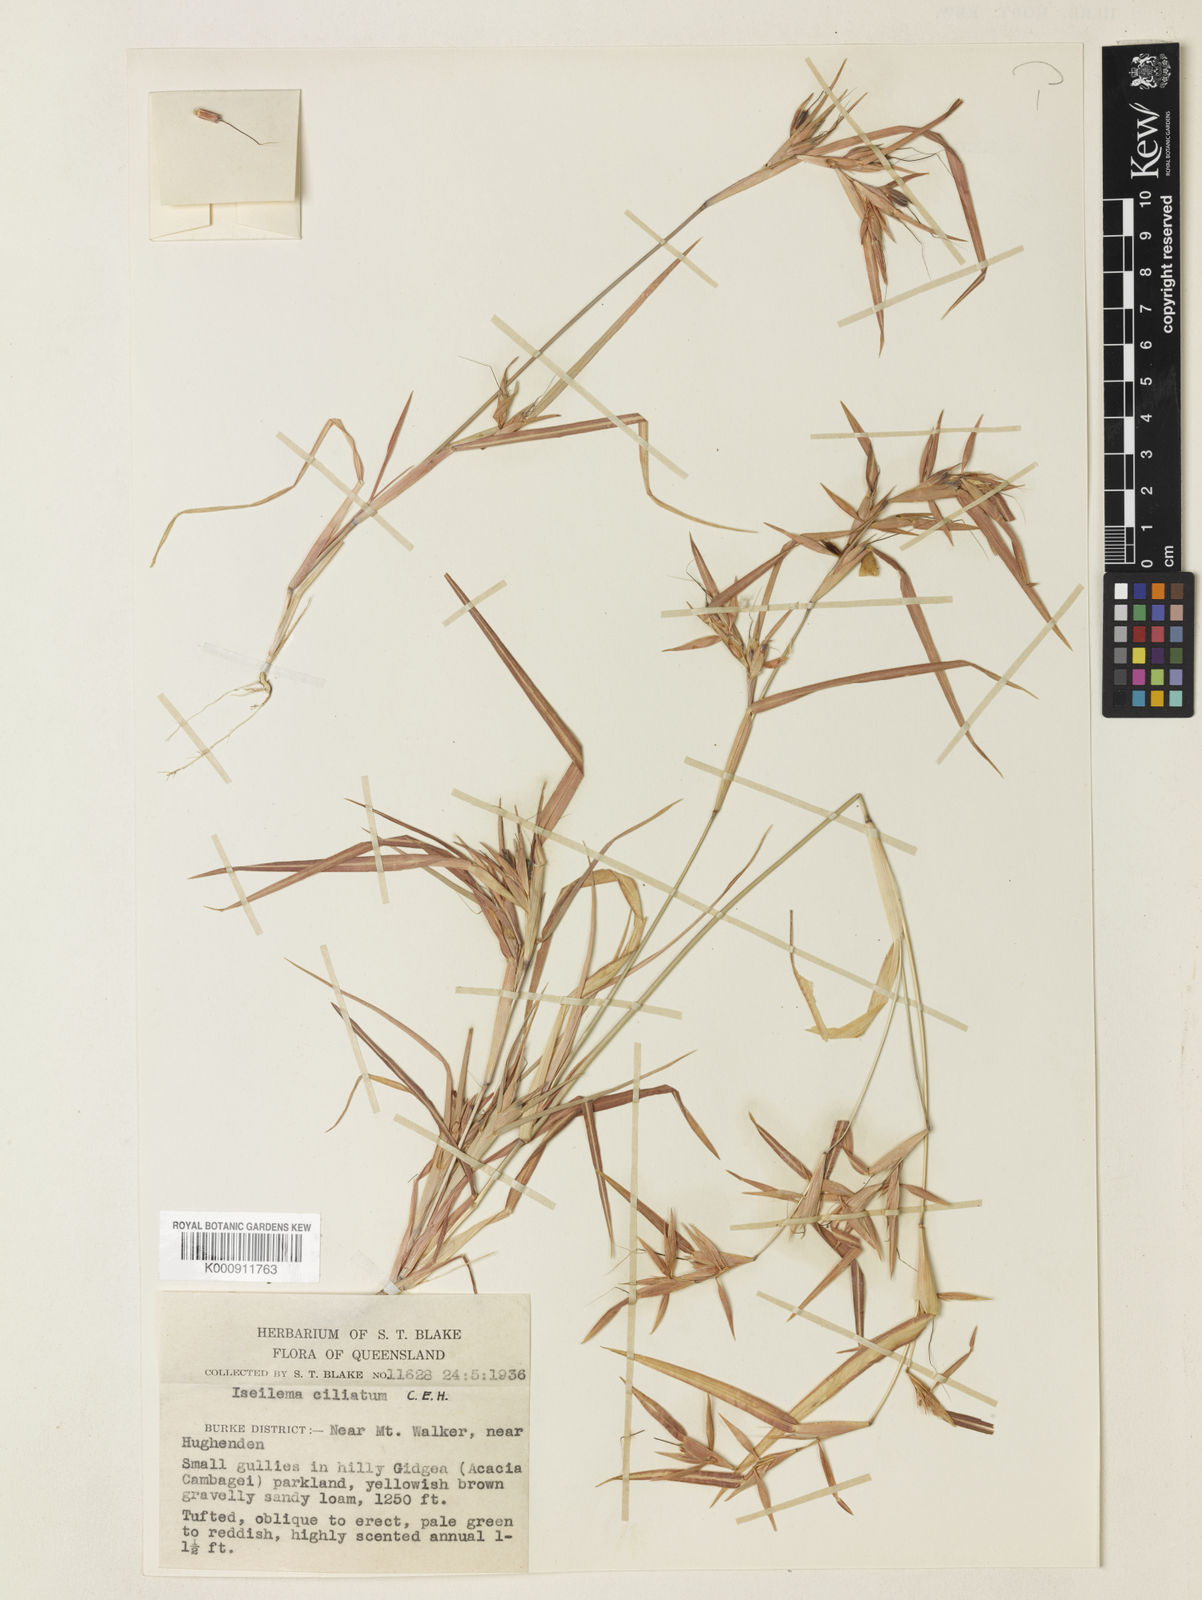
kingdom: Plantae
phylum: Tracheophyta
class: Liliopsida
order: Poales
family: Poaceae
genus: Iseilema
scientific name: Iseilema ciliatum
